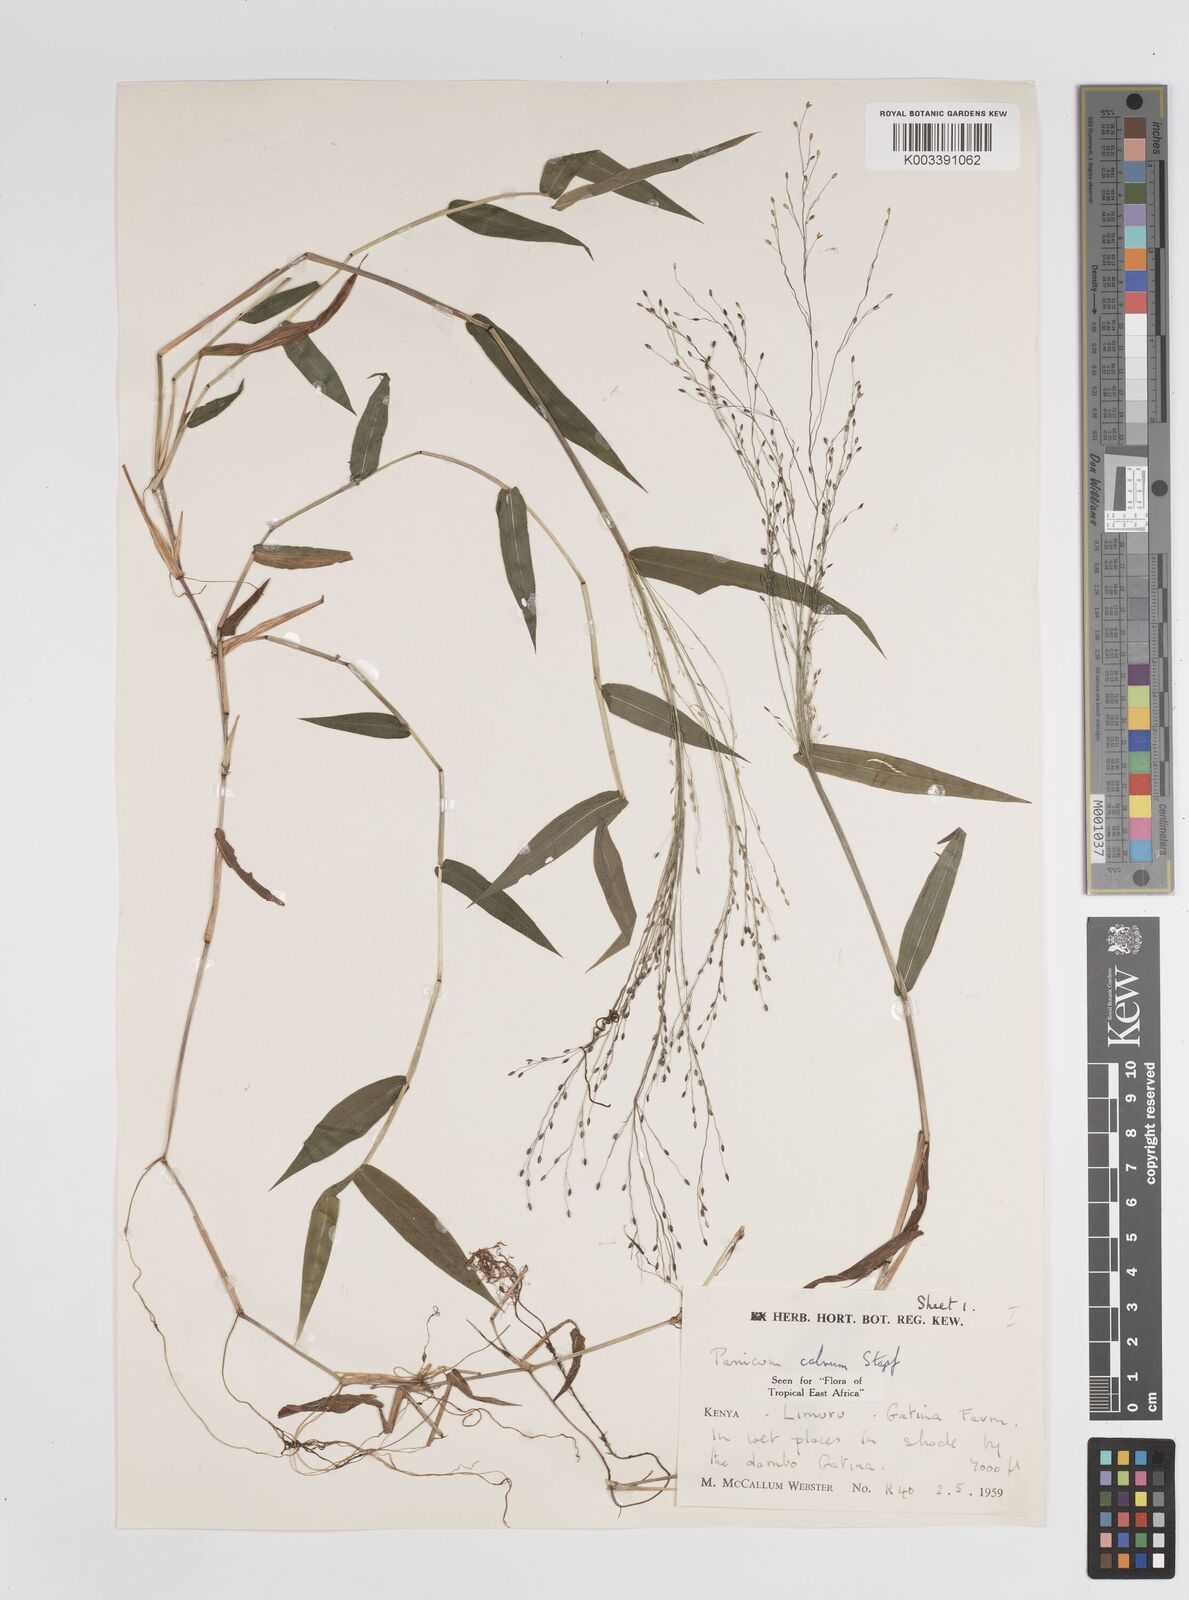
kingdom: Plantae
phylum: Tracheophyta
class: Liliopsida
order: Poales
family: Poaceae
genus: Panicum
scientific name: Panicum calvum
